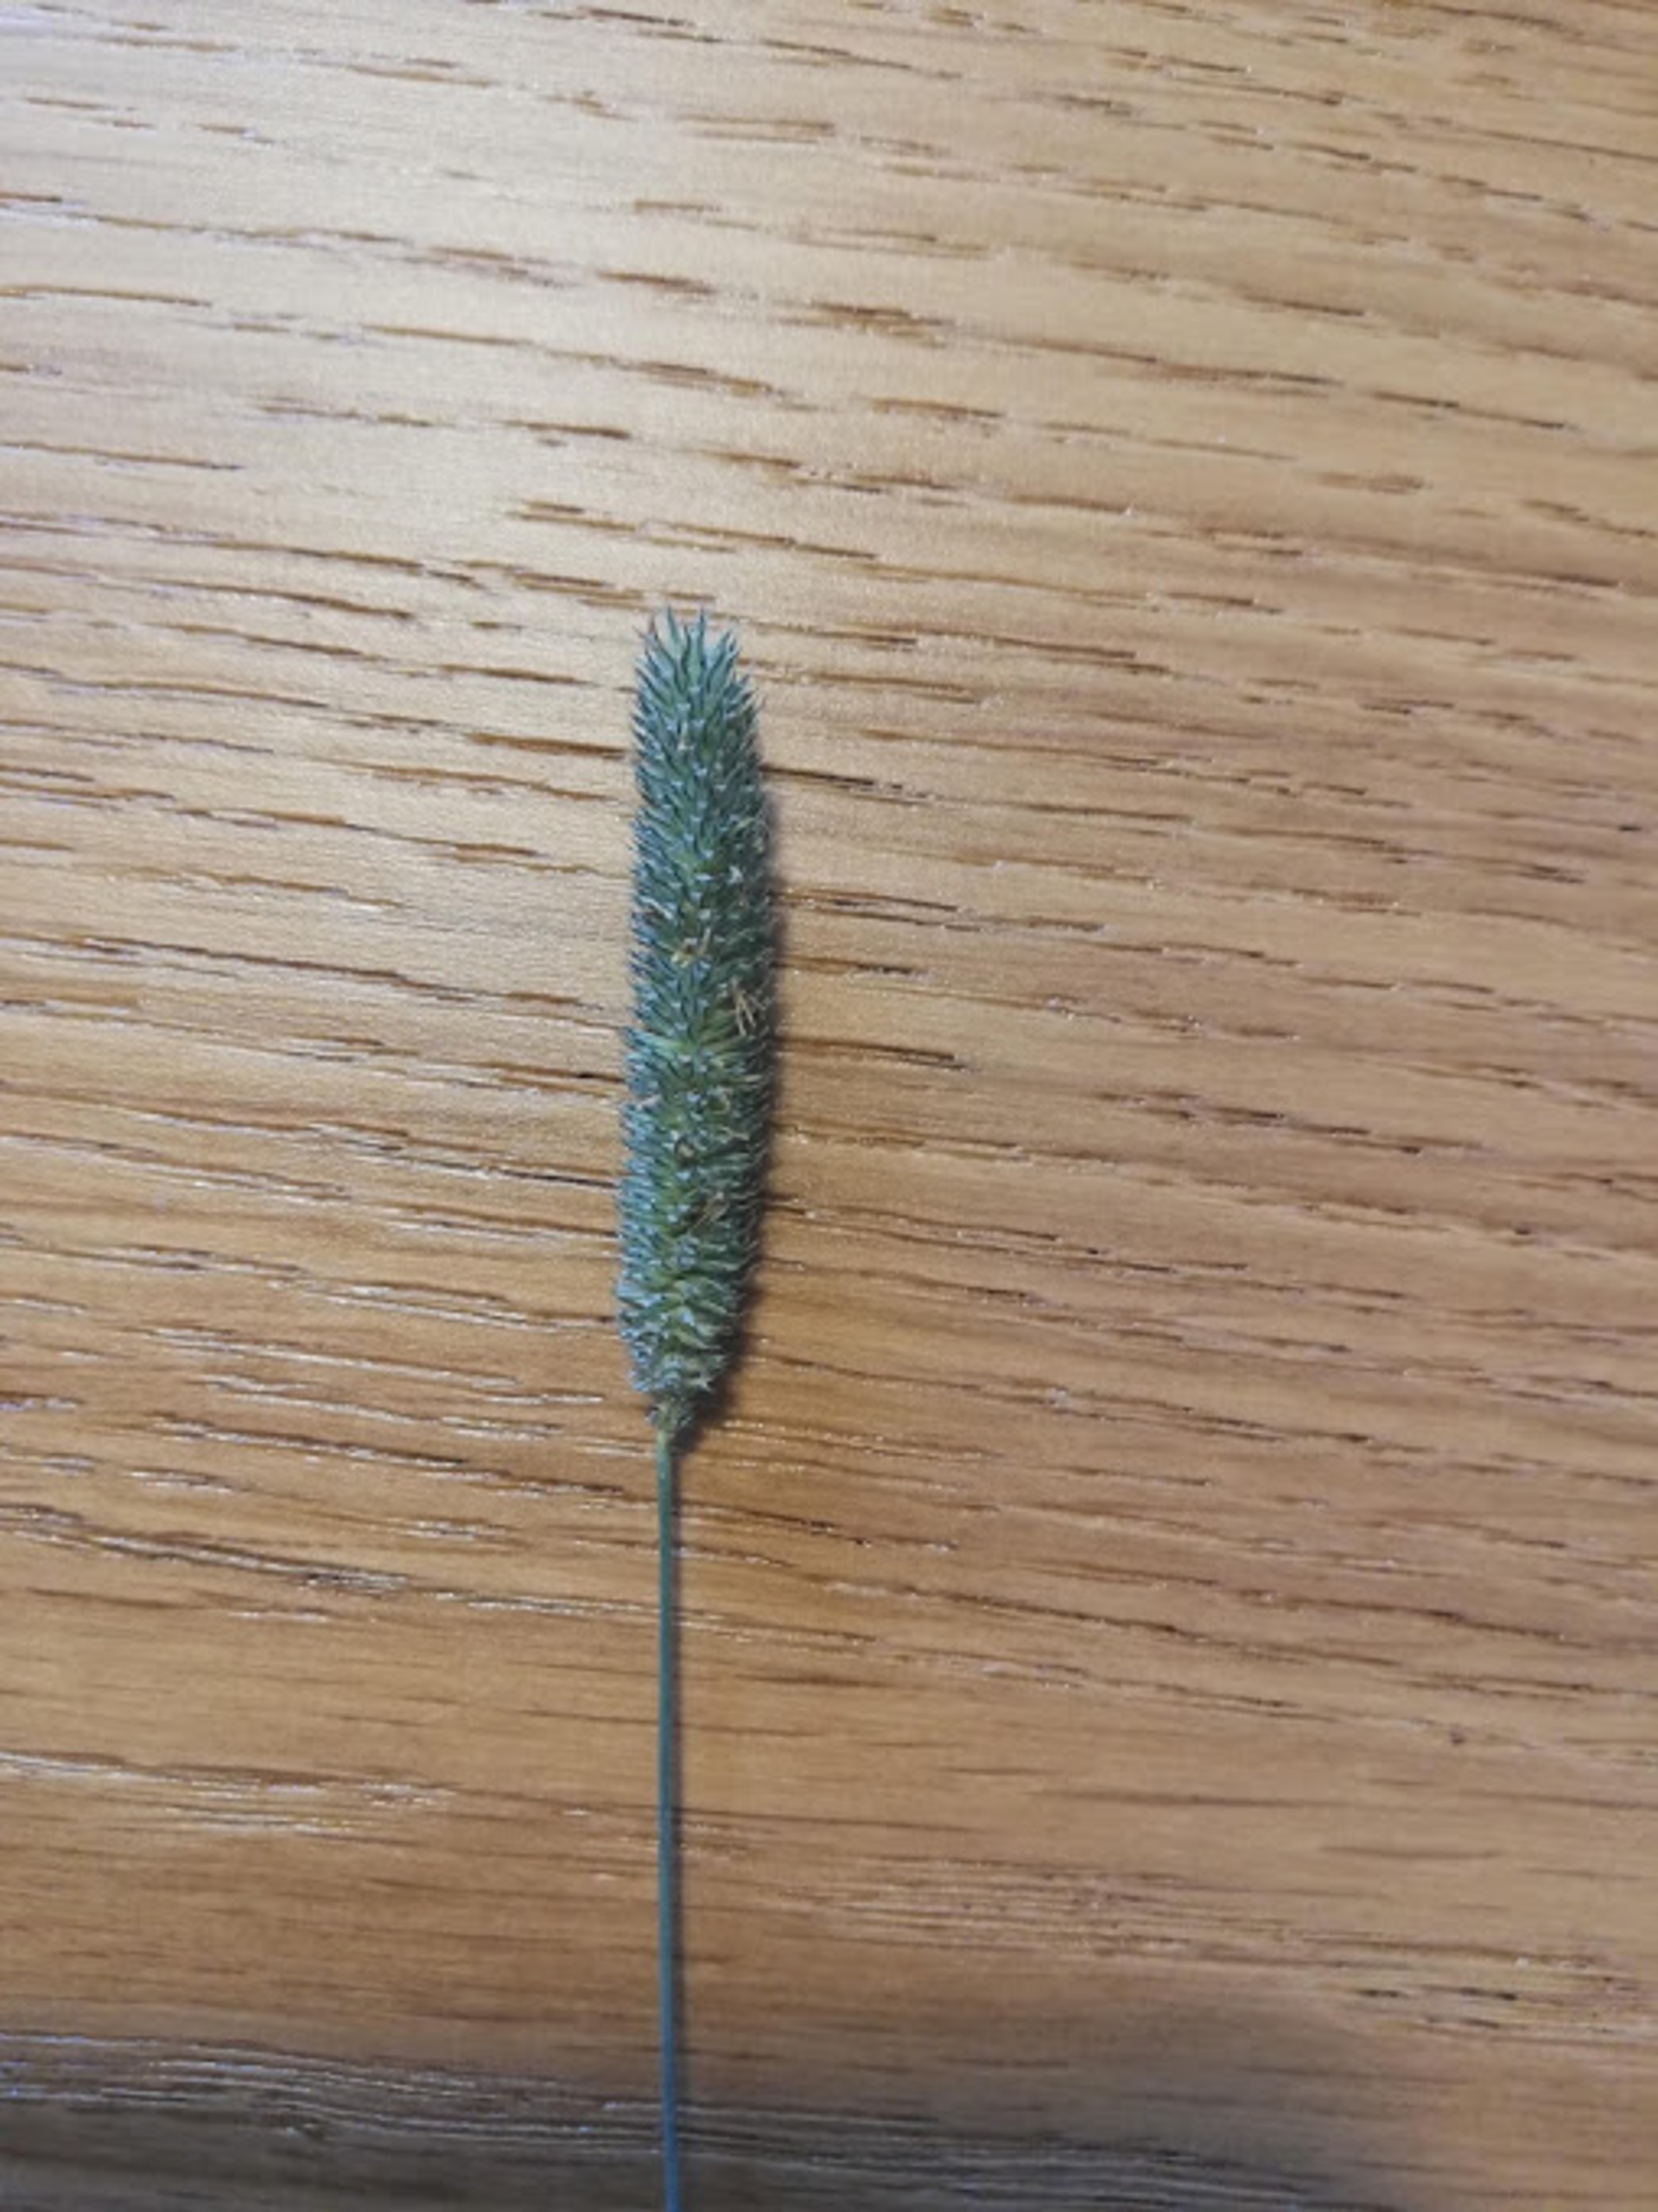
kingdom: Plantae
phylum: Tracheophyta
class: Liliopsida
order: Poales
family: Poaceae
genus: Phleum
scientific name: Phleum pratense
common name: Eng-rottehale
